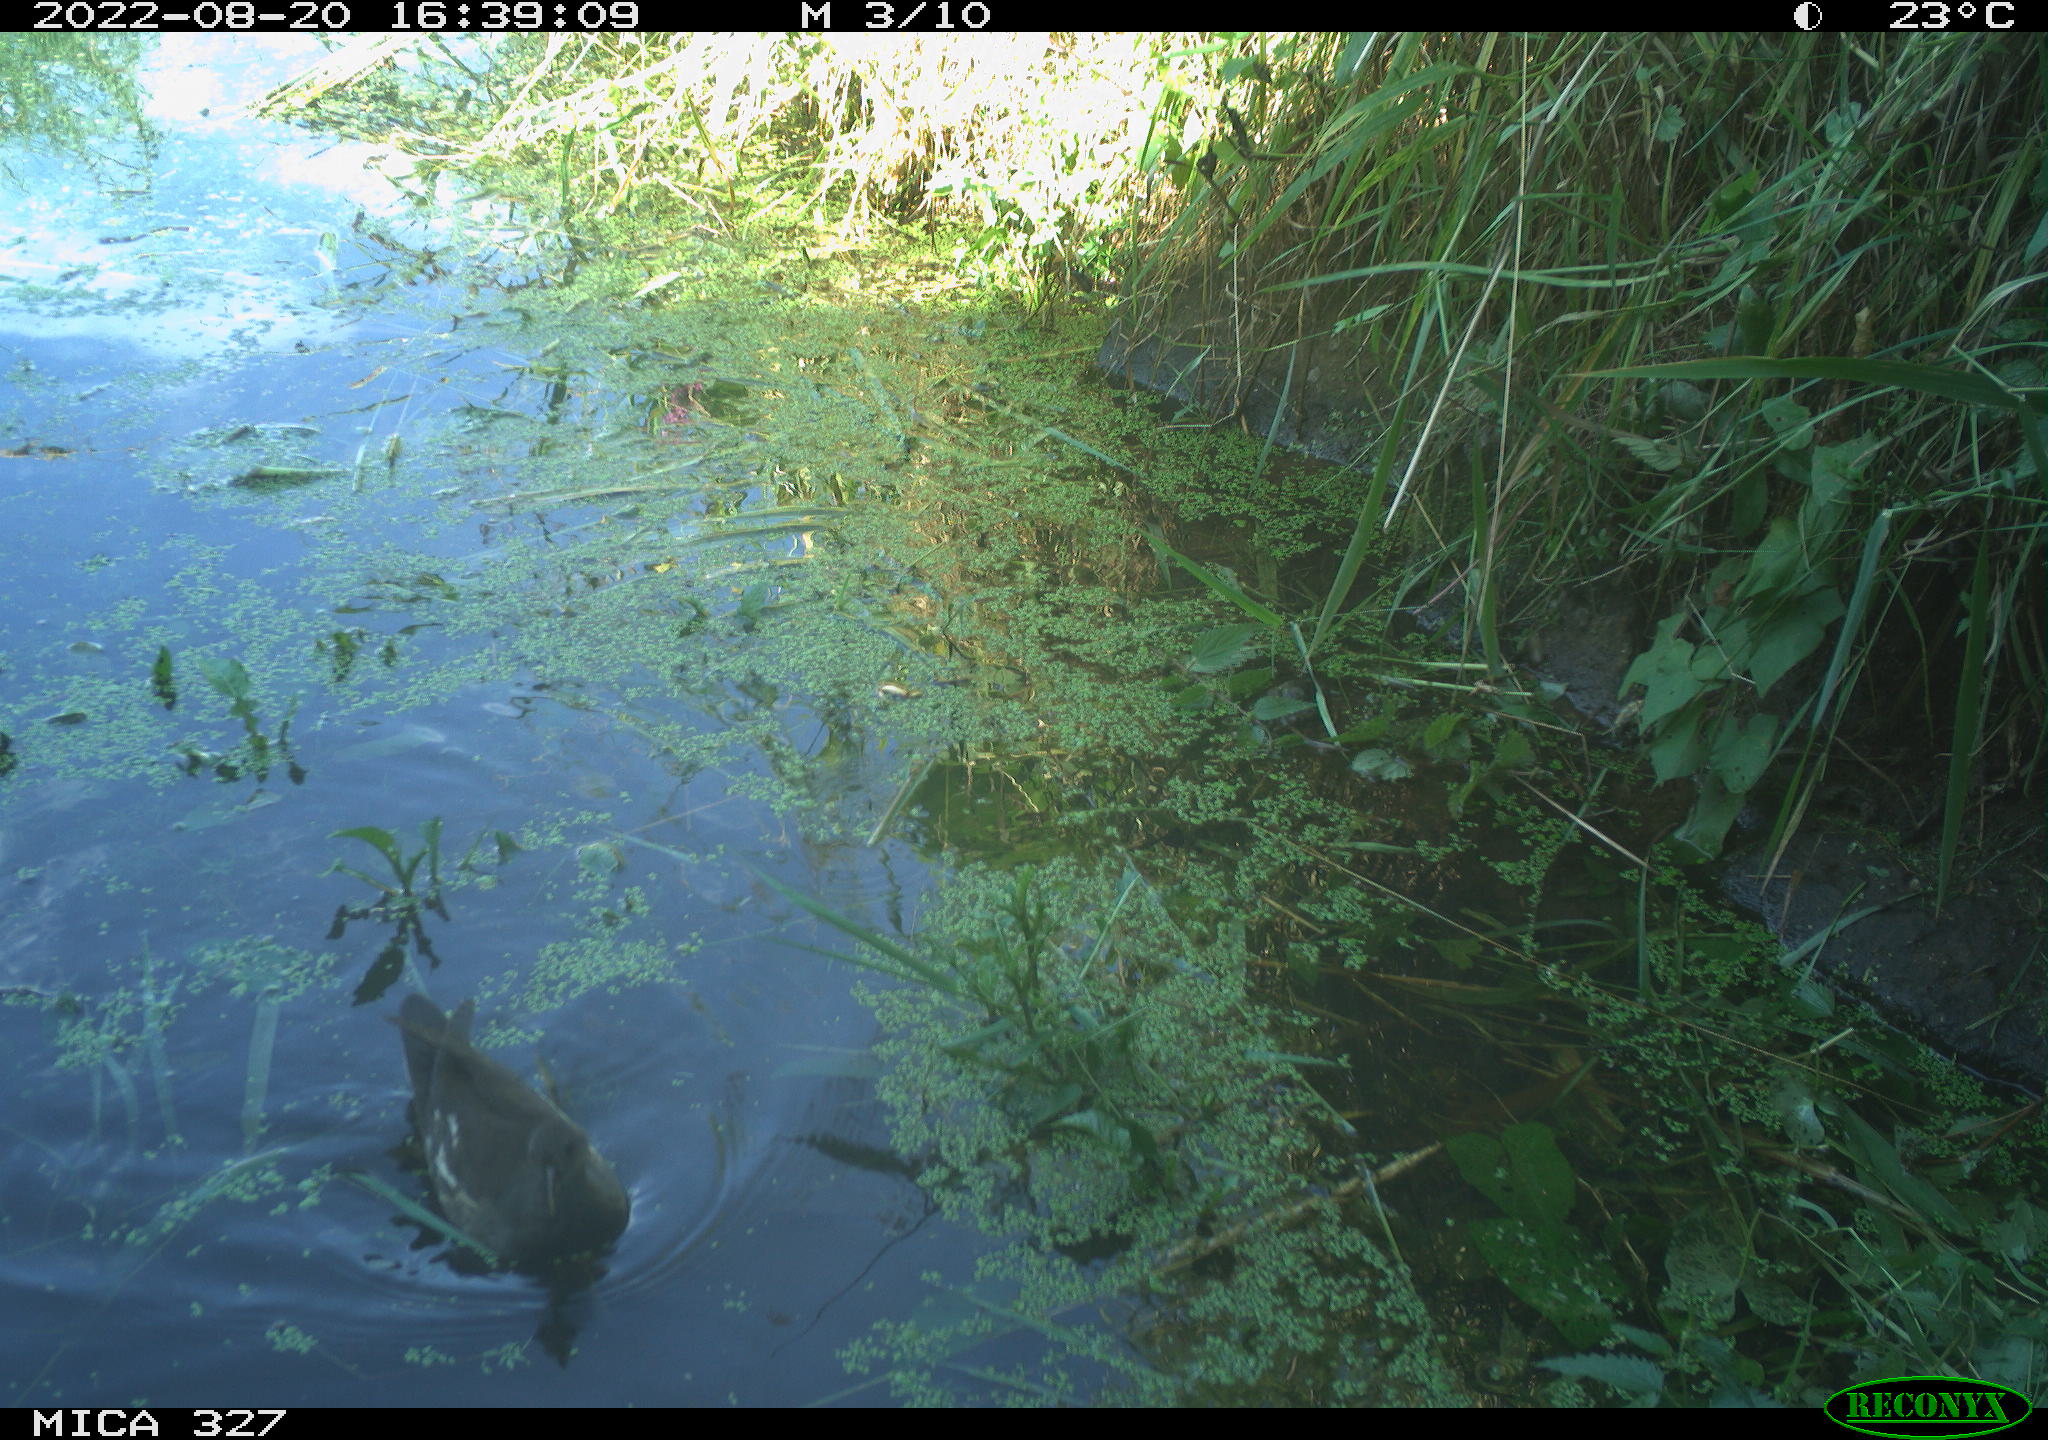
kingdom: Animalia
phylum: Chordata
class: Aves
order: Gruiformes
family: Rallidae
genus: Gallinula
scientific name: Gallinula chloropus
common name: Common moorhen
